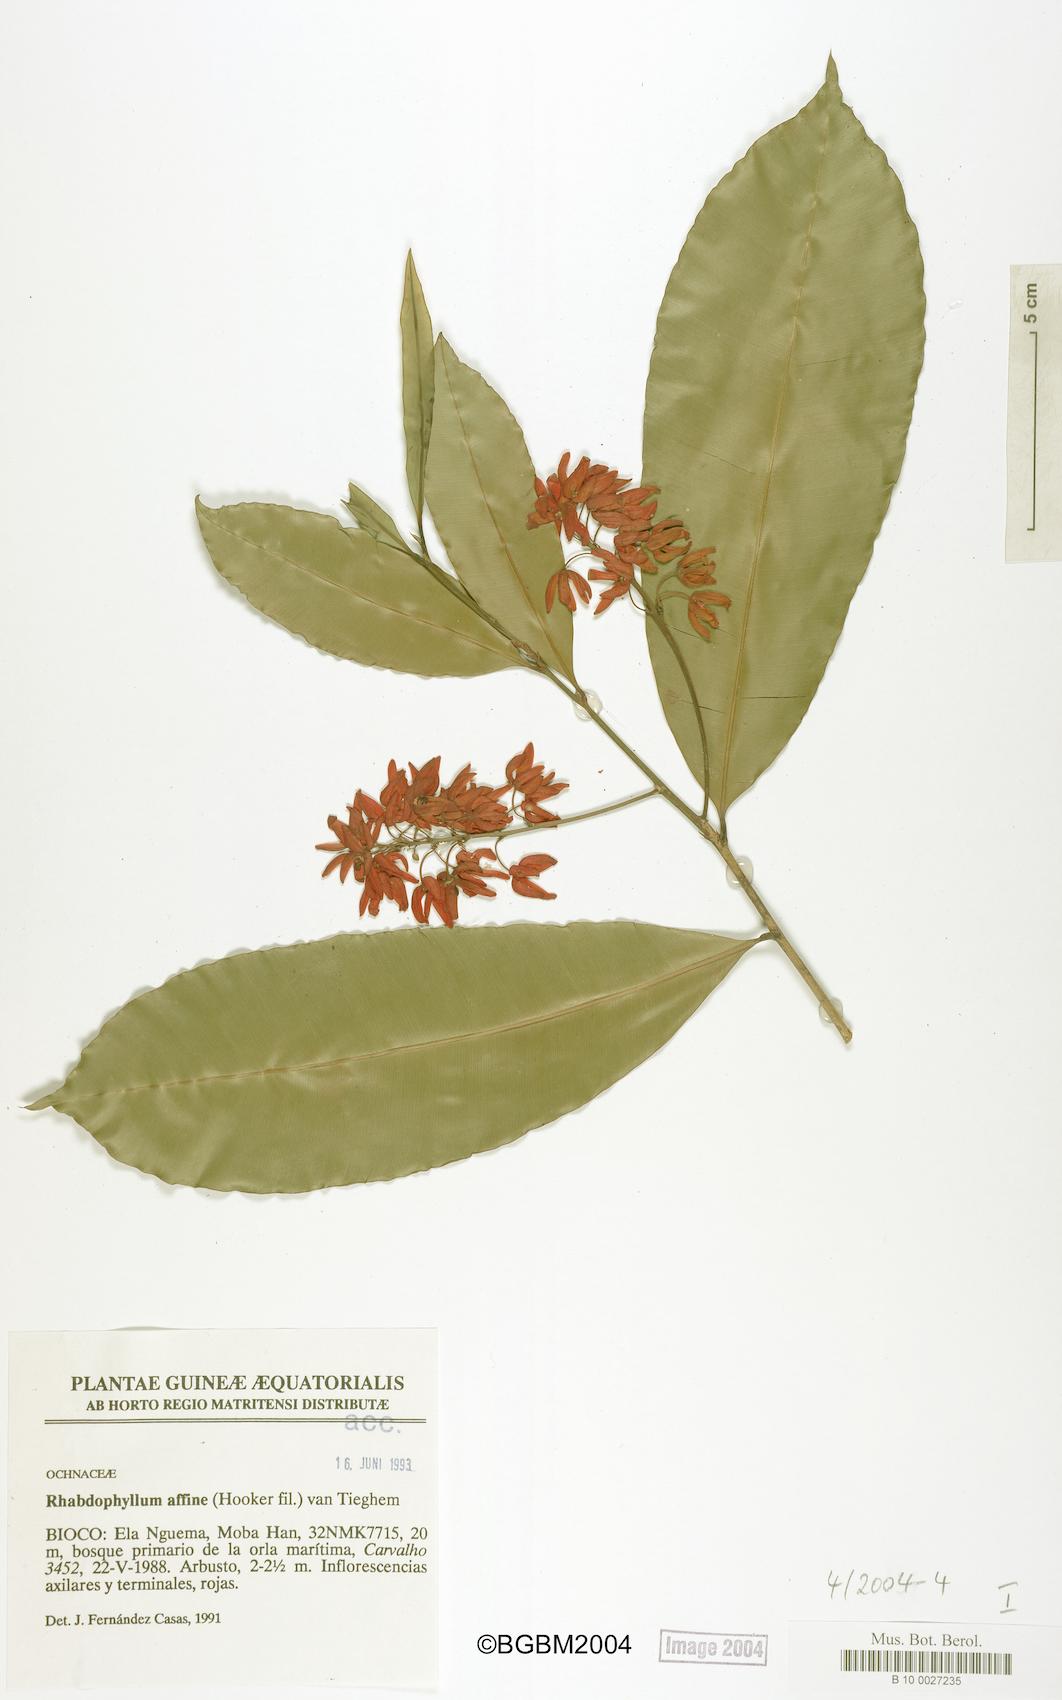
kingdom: Plantae
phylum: Tracheophyta
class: Magnoliopsida
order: Malpighiales
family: Ochnaceae
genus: Rhabdophyllum
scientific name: Rhabdophyllum affine
